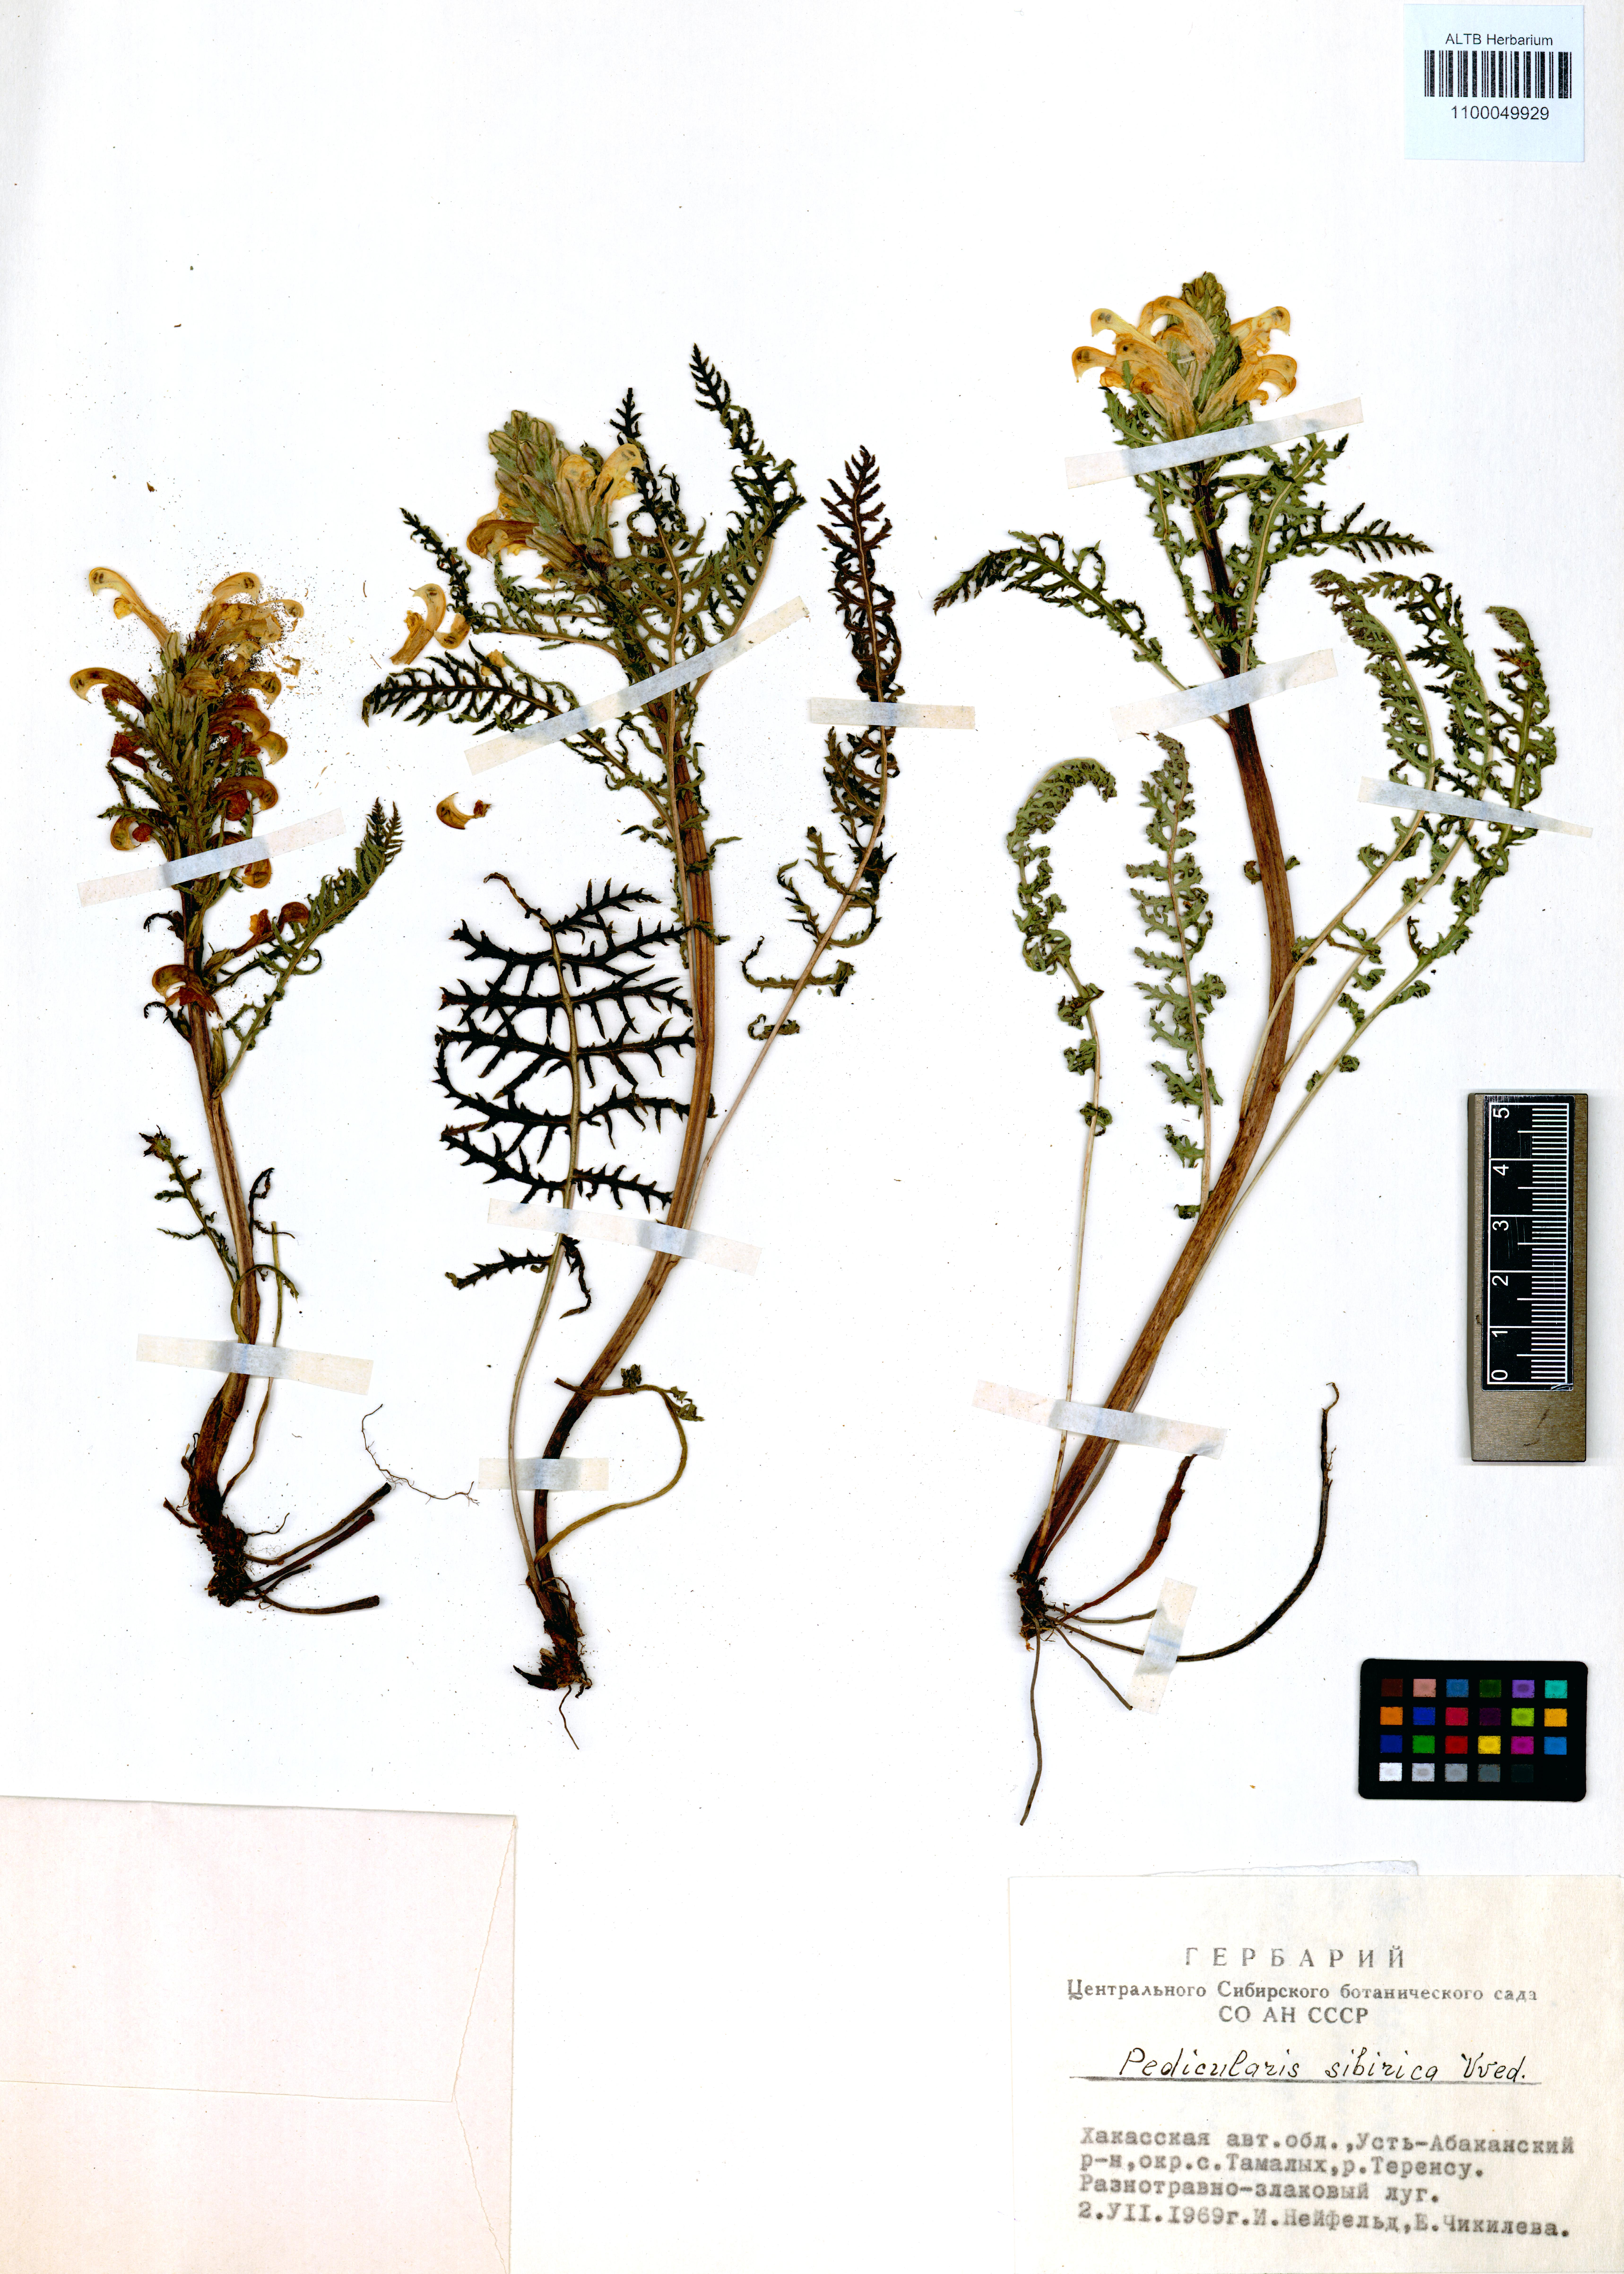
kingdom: Plantae
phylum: Tracheophyta
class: Magnoliopsida
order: Lamiales
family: Orobanchaceae
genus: Pedicularis
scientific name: Pedicularis sibirica
